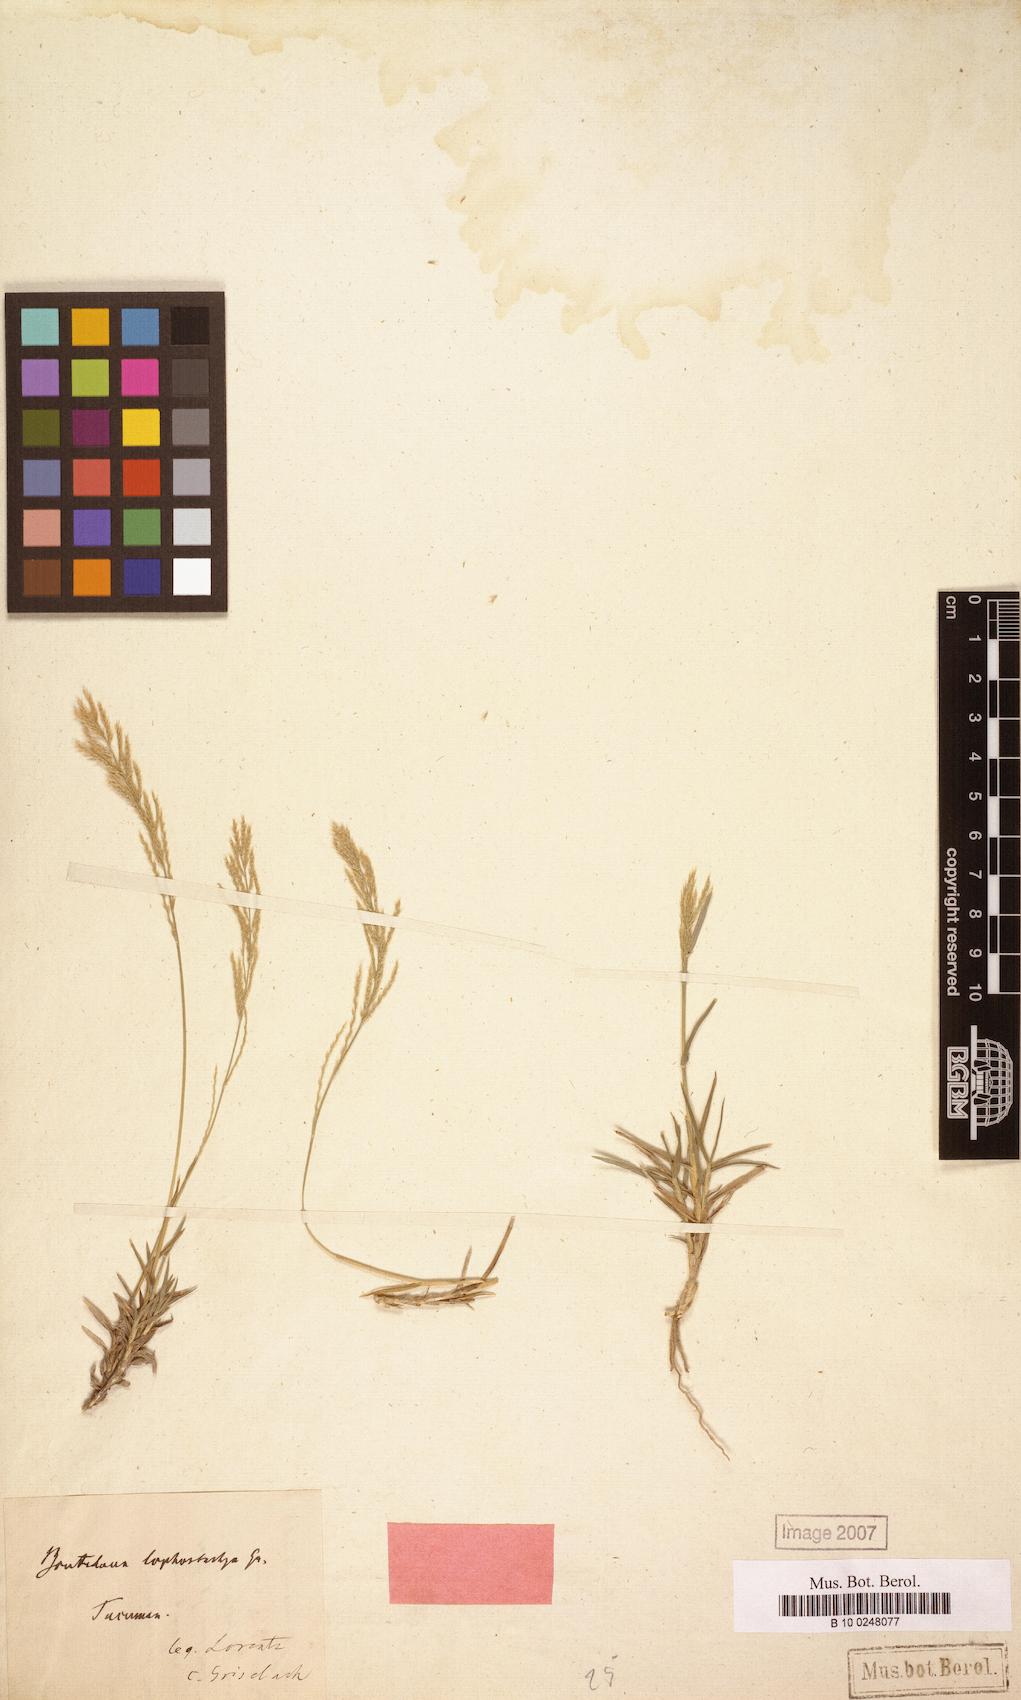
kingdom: Plantae
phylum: Tracheophyta
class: Liliopsida
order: Poales
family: Poaceae
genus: Neobouteloua
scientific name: Neobouteloua lophostachya
